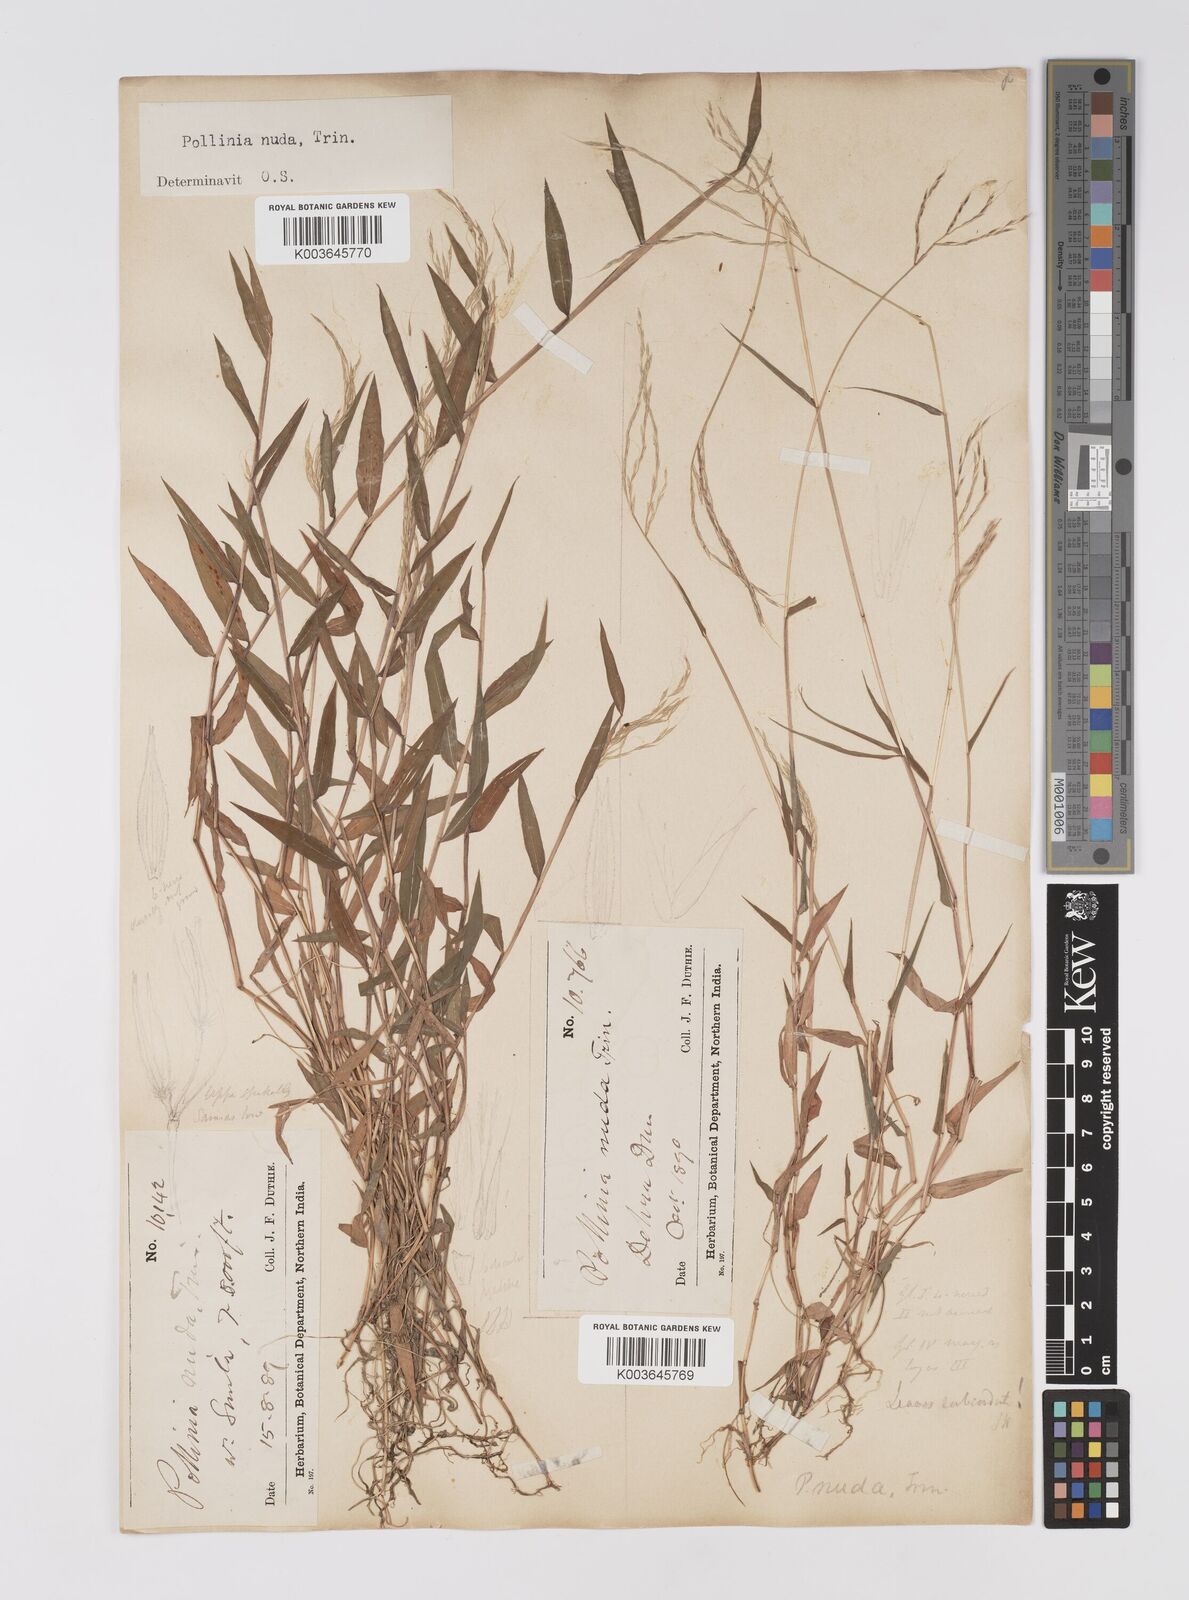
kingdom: Plantae
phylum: Tracheophyta
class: Liliopsida
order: Poales
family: Poaceae
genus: Microstegium
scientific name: Microstegium nudum
